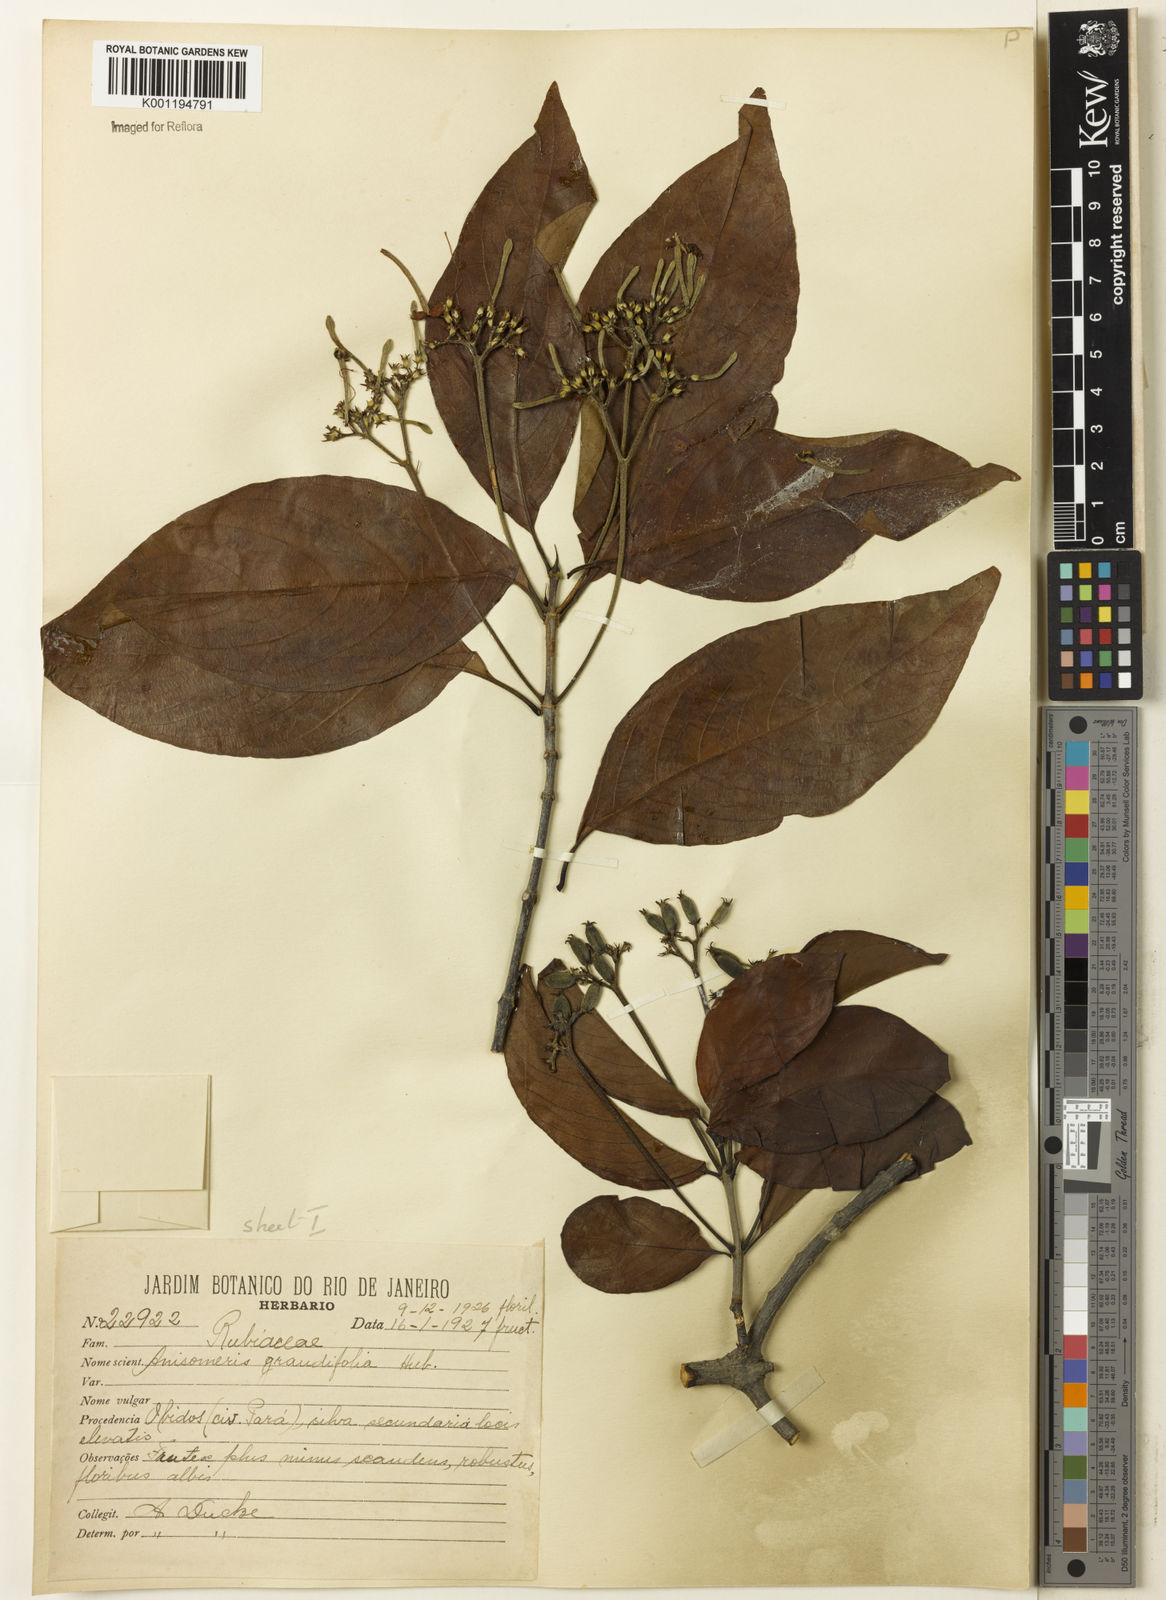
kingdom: Plantae
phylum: Tracheophyta
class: Magnoliopsida
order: Gentianales
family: Rubiaceae
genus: Chomelia
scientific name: Chomelia grandifolia
